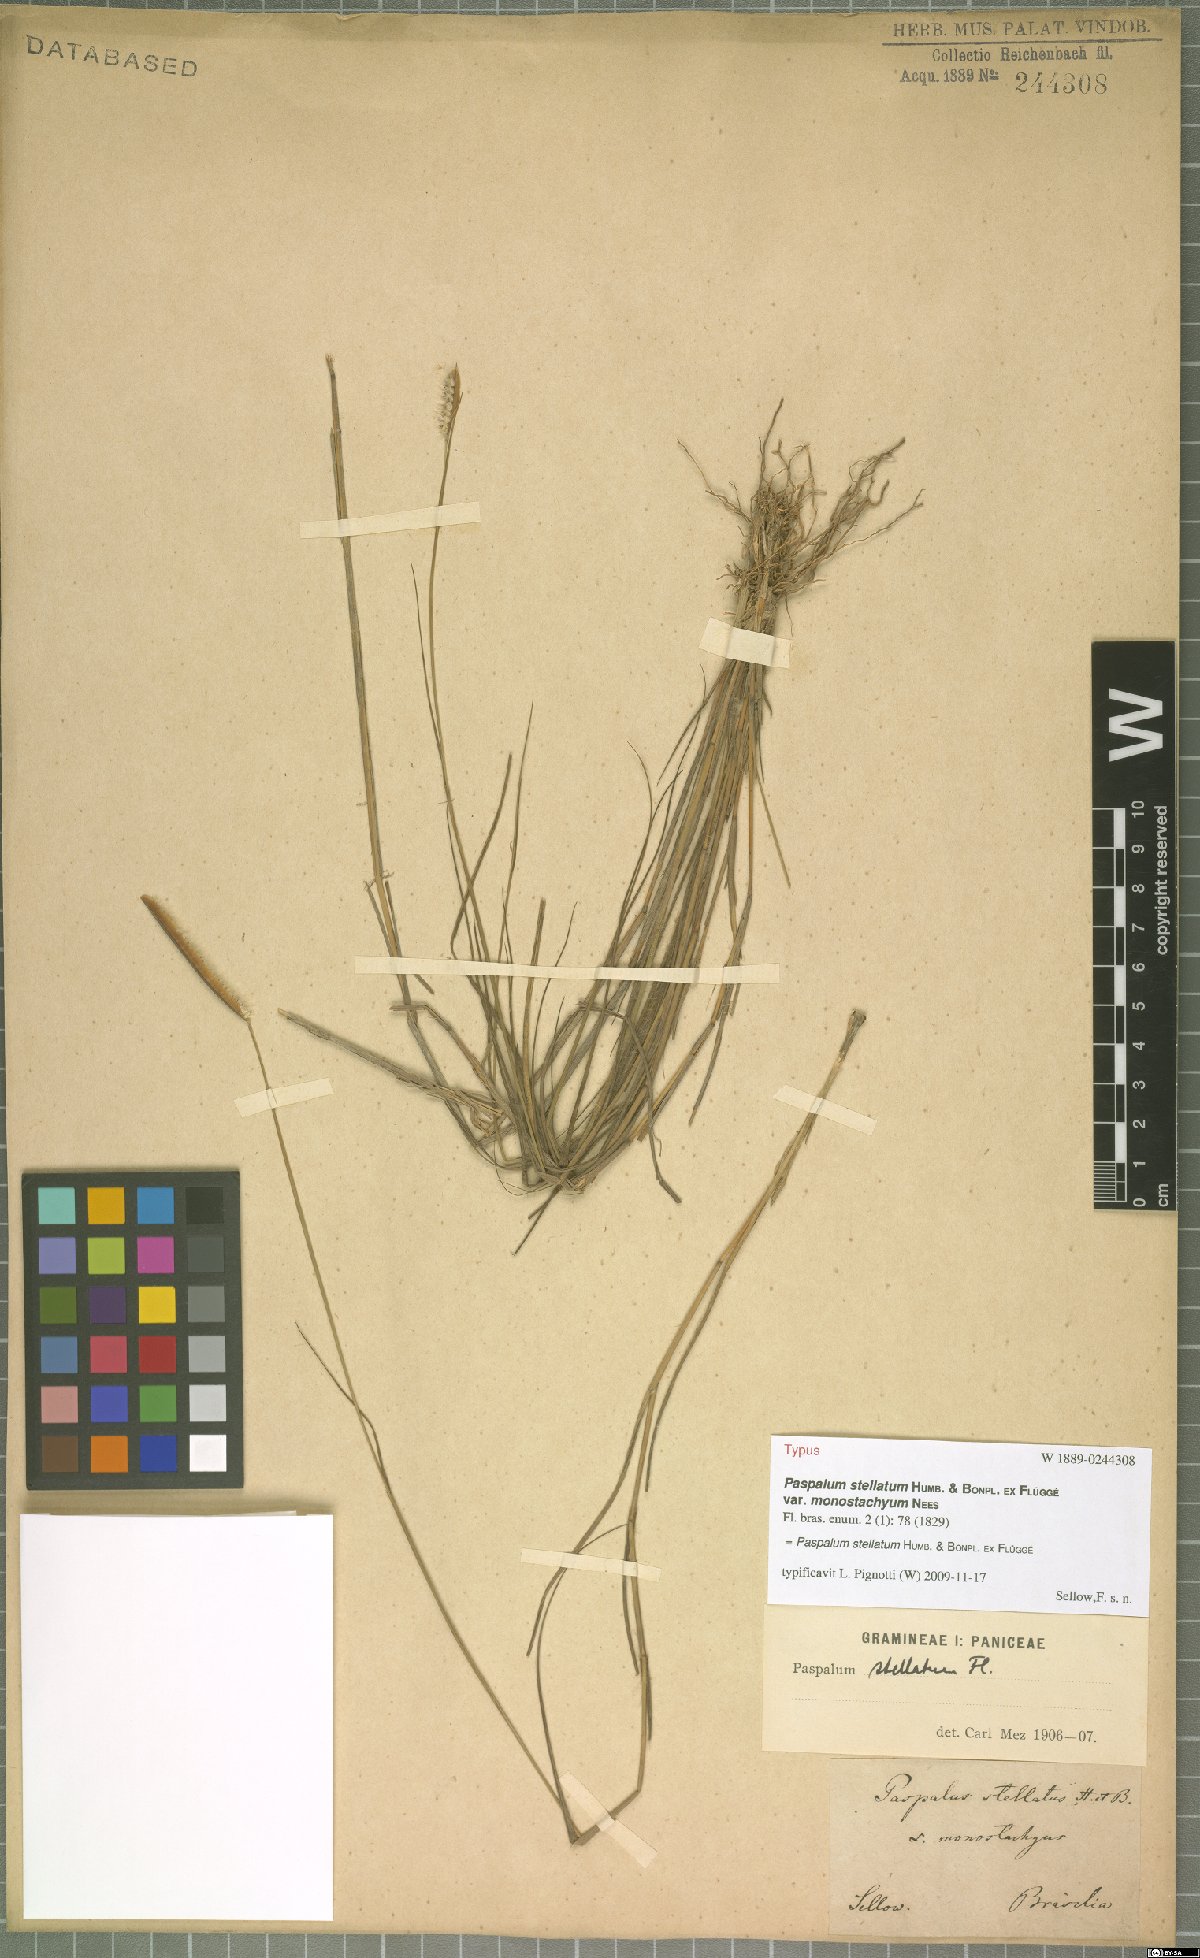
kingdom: Plantae
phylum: Tracheophyta
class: Liliopsida
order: Poales
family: Poaceae
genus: Paspalum
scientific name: Paspalum stellatum
